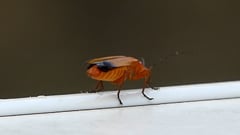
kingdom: Animalia
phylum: Arthropoda
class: Insecta
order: Coleoptera
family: Cantharidae
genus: Rhagonycha
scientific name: Rhagonycha fulva
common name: Common red soldier beetle
